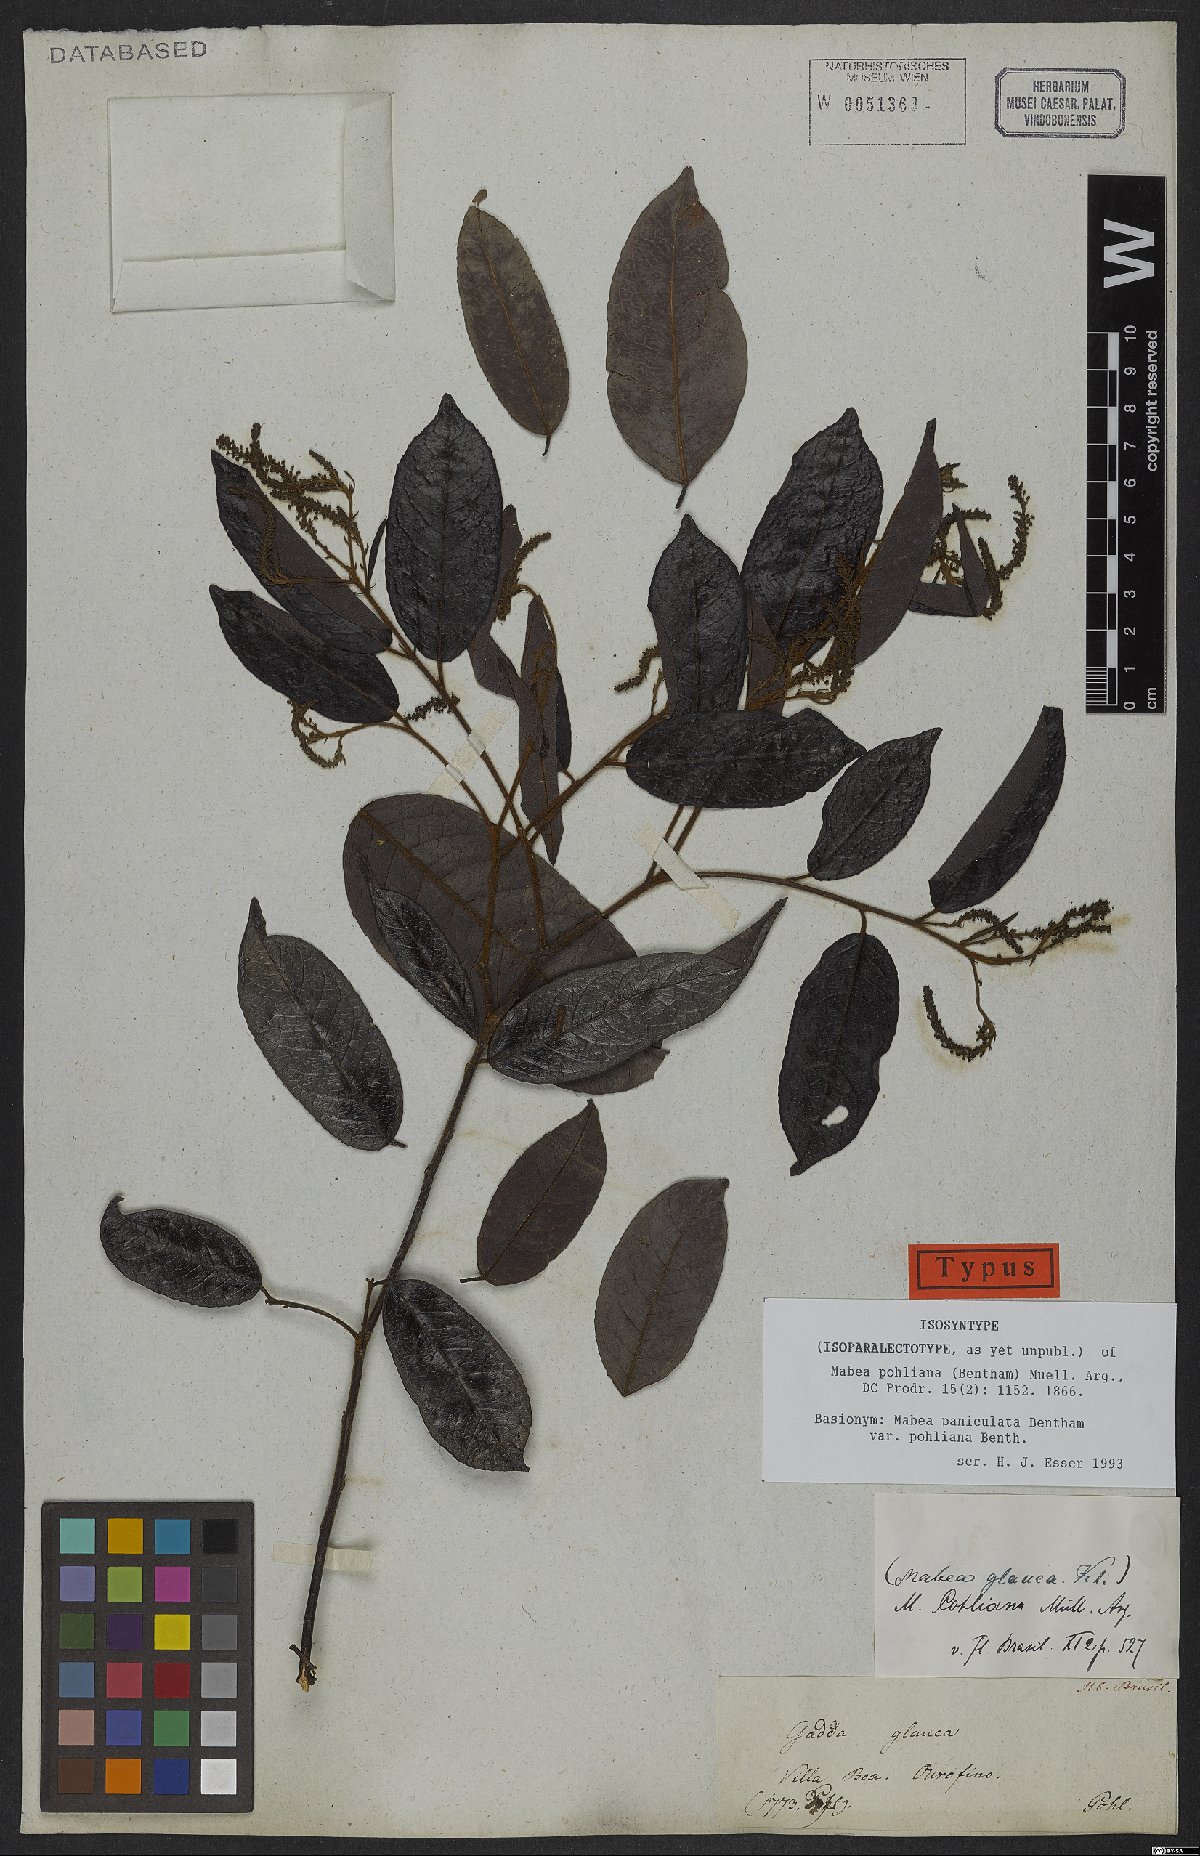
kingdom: Plantae
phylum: Tracheophyta
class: Magnoliopsida
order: Malpighiales
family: Euphorbiaceae
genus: Mabea
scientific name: Mabea pohliana
